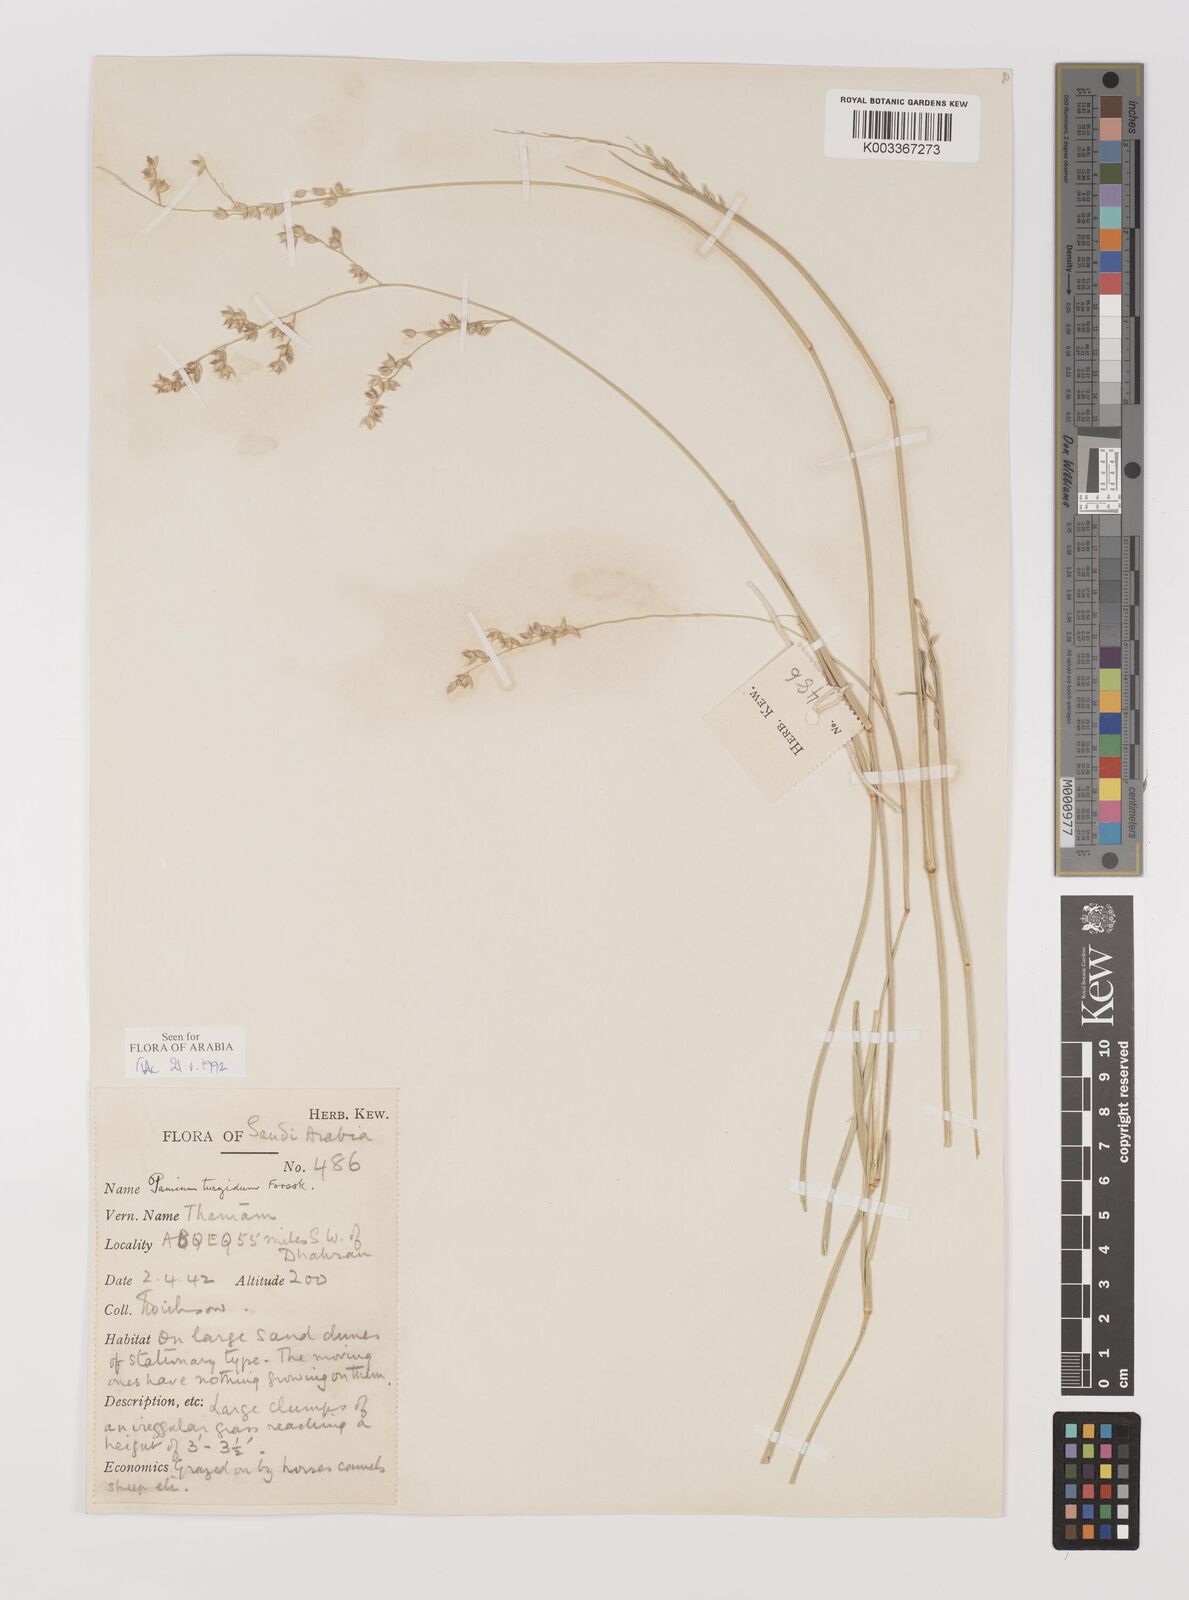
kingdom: Plantae
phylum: Tracheophyta
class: Liliopsida
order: Poales
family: Poaceae
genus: Panicum
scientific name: Panicum turgidum
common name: Desert grass
